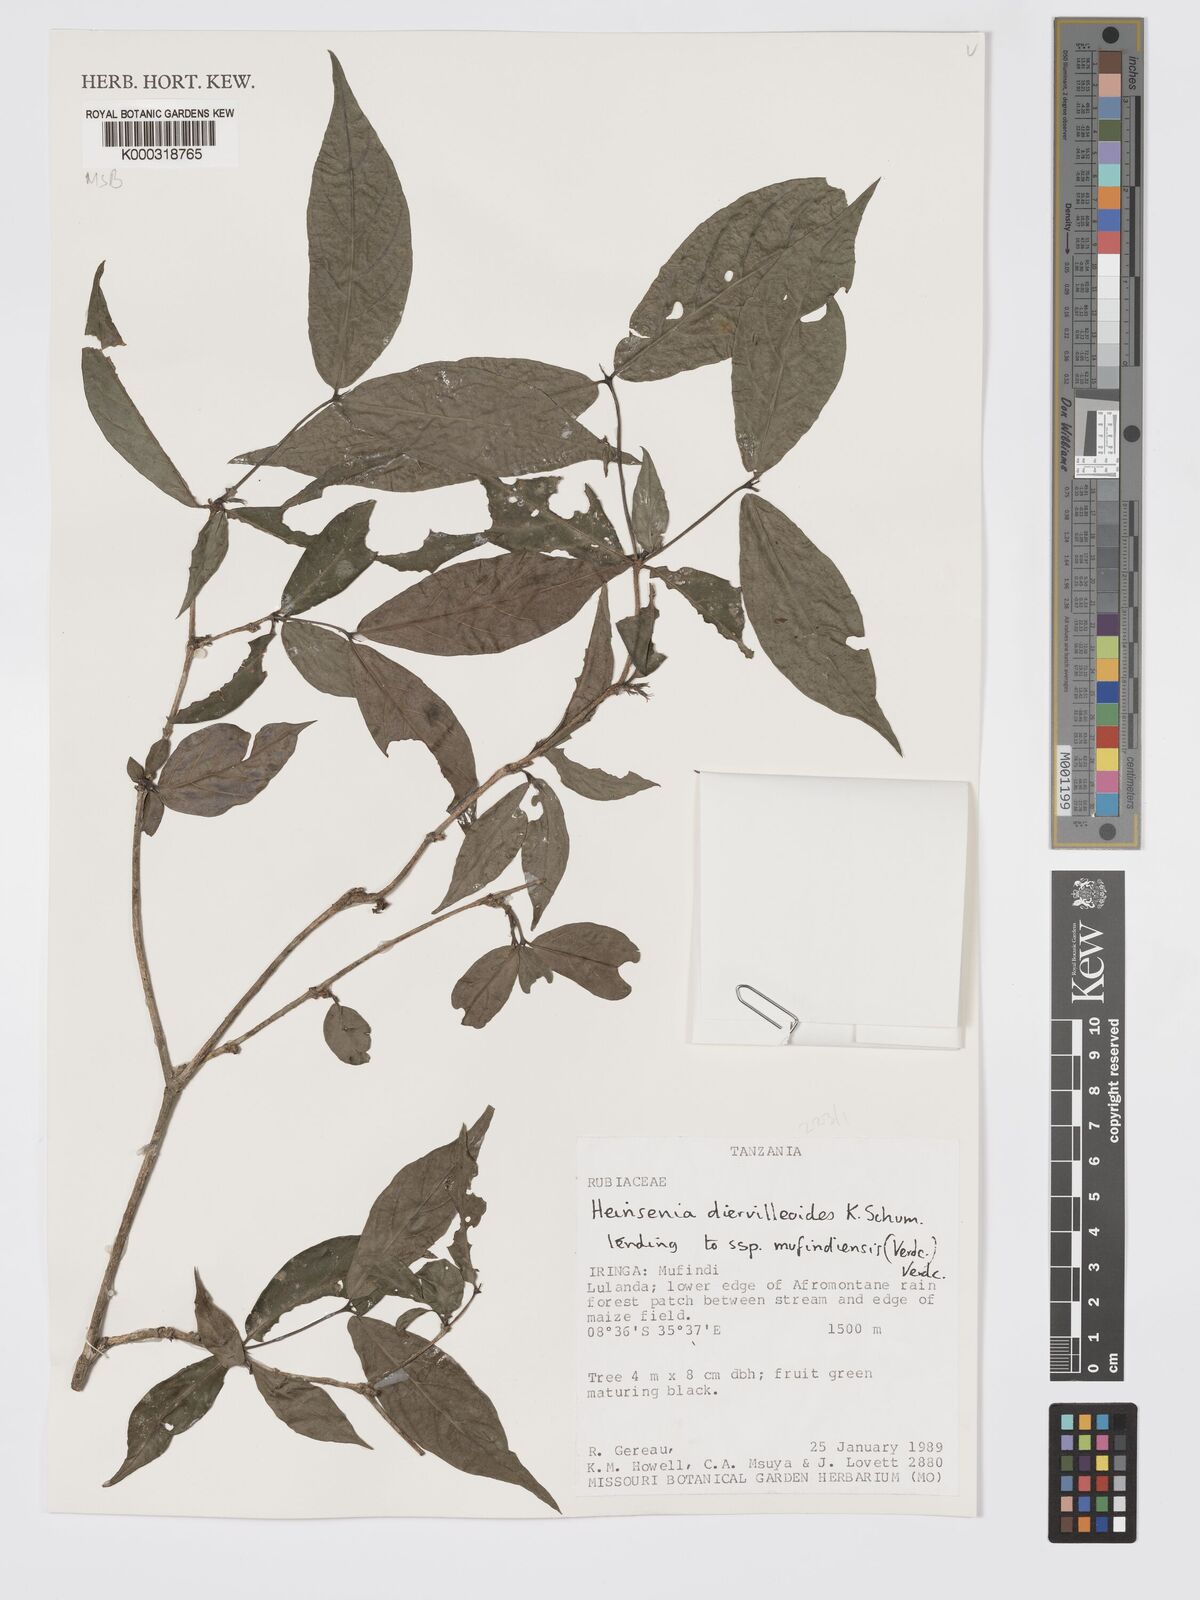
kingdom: Plantae
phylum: Tracheophyta
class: Magnoliopsida
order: Gentianales
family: Rubiaceae
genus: Heinsenia
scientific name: Heinsenia diervilleoides
